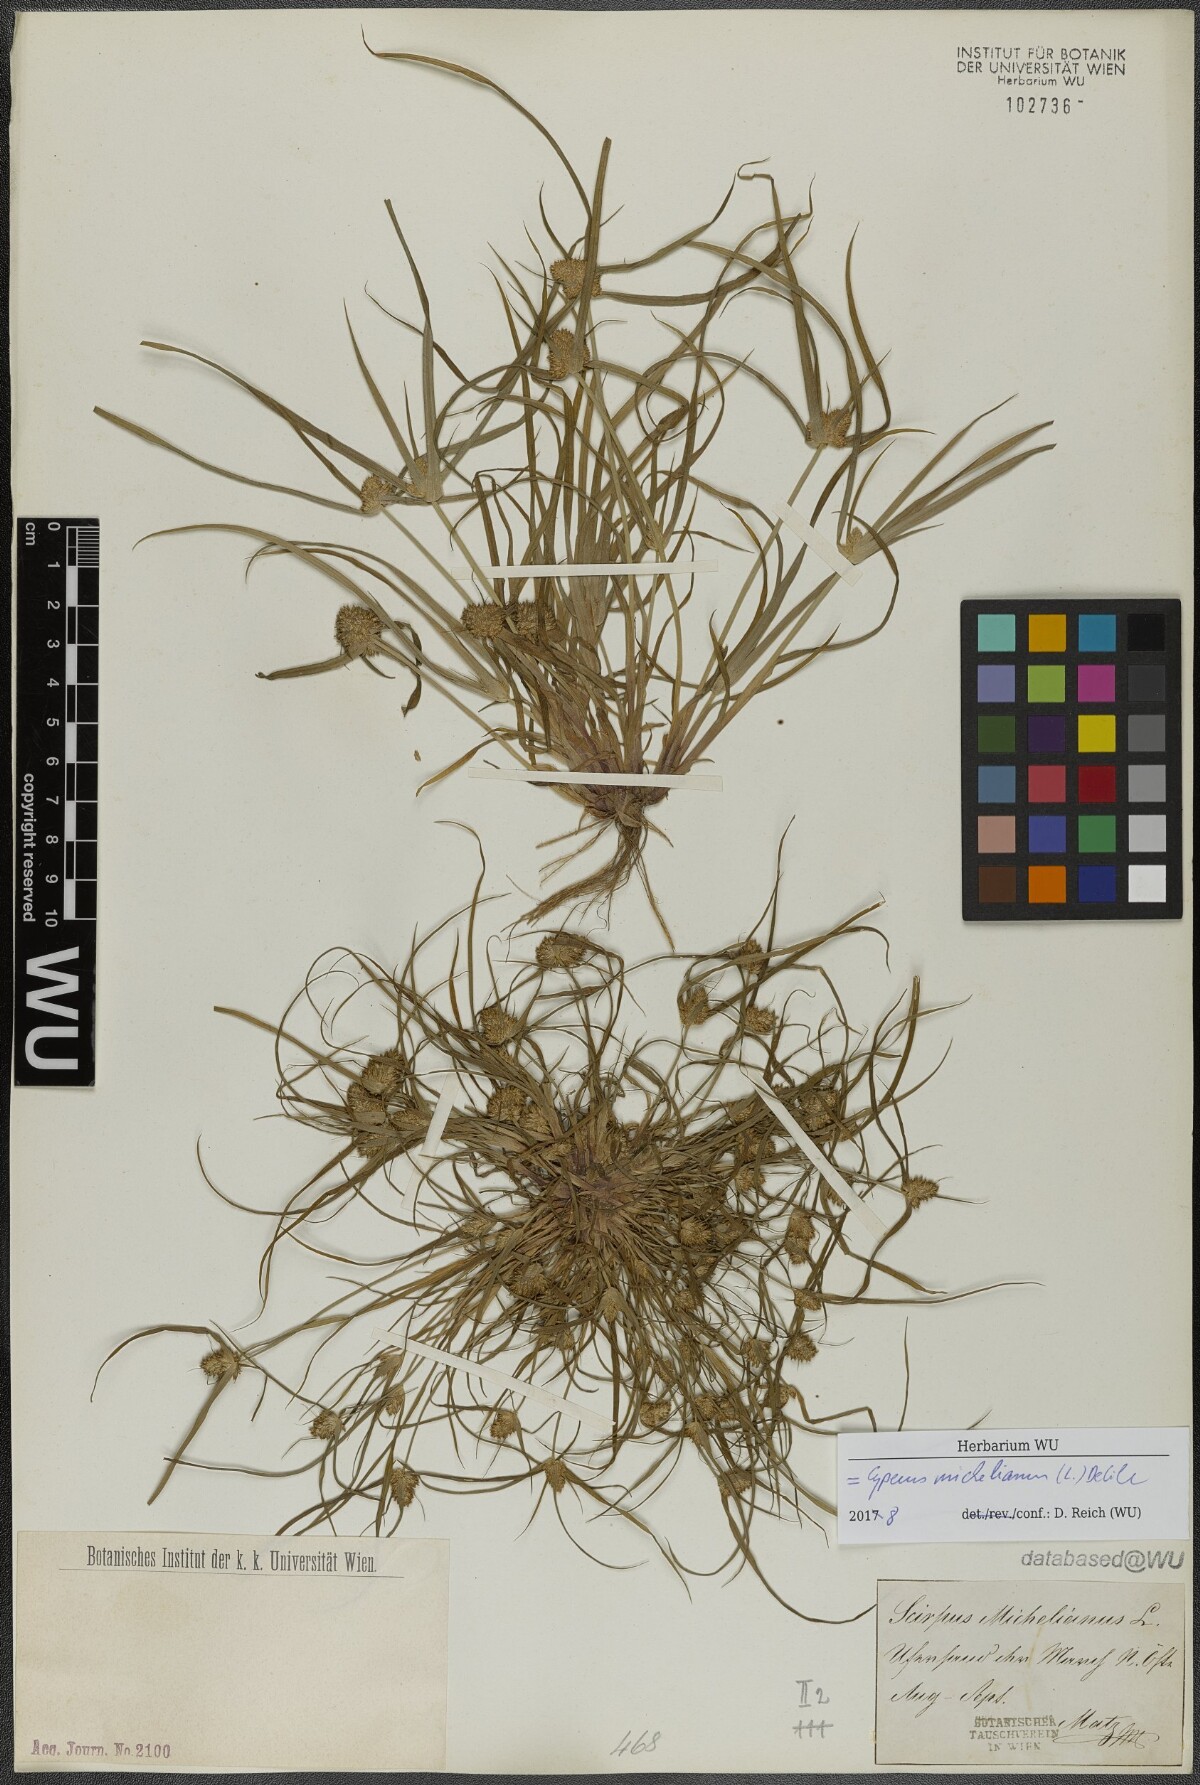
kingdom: Plantae
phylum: Tracheophyta
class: Liliopsida
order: Poales
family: Cyperaceae
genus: Cyperus
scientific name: Cyperus michelianus
